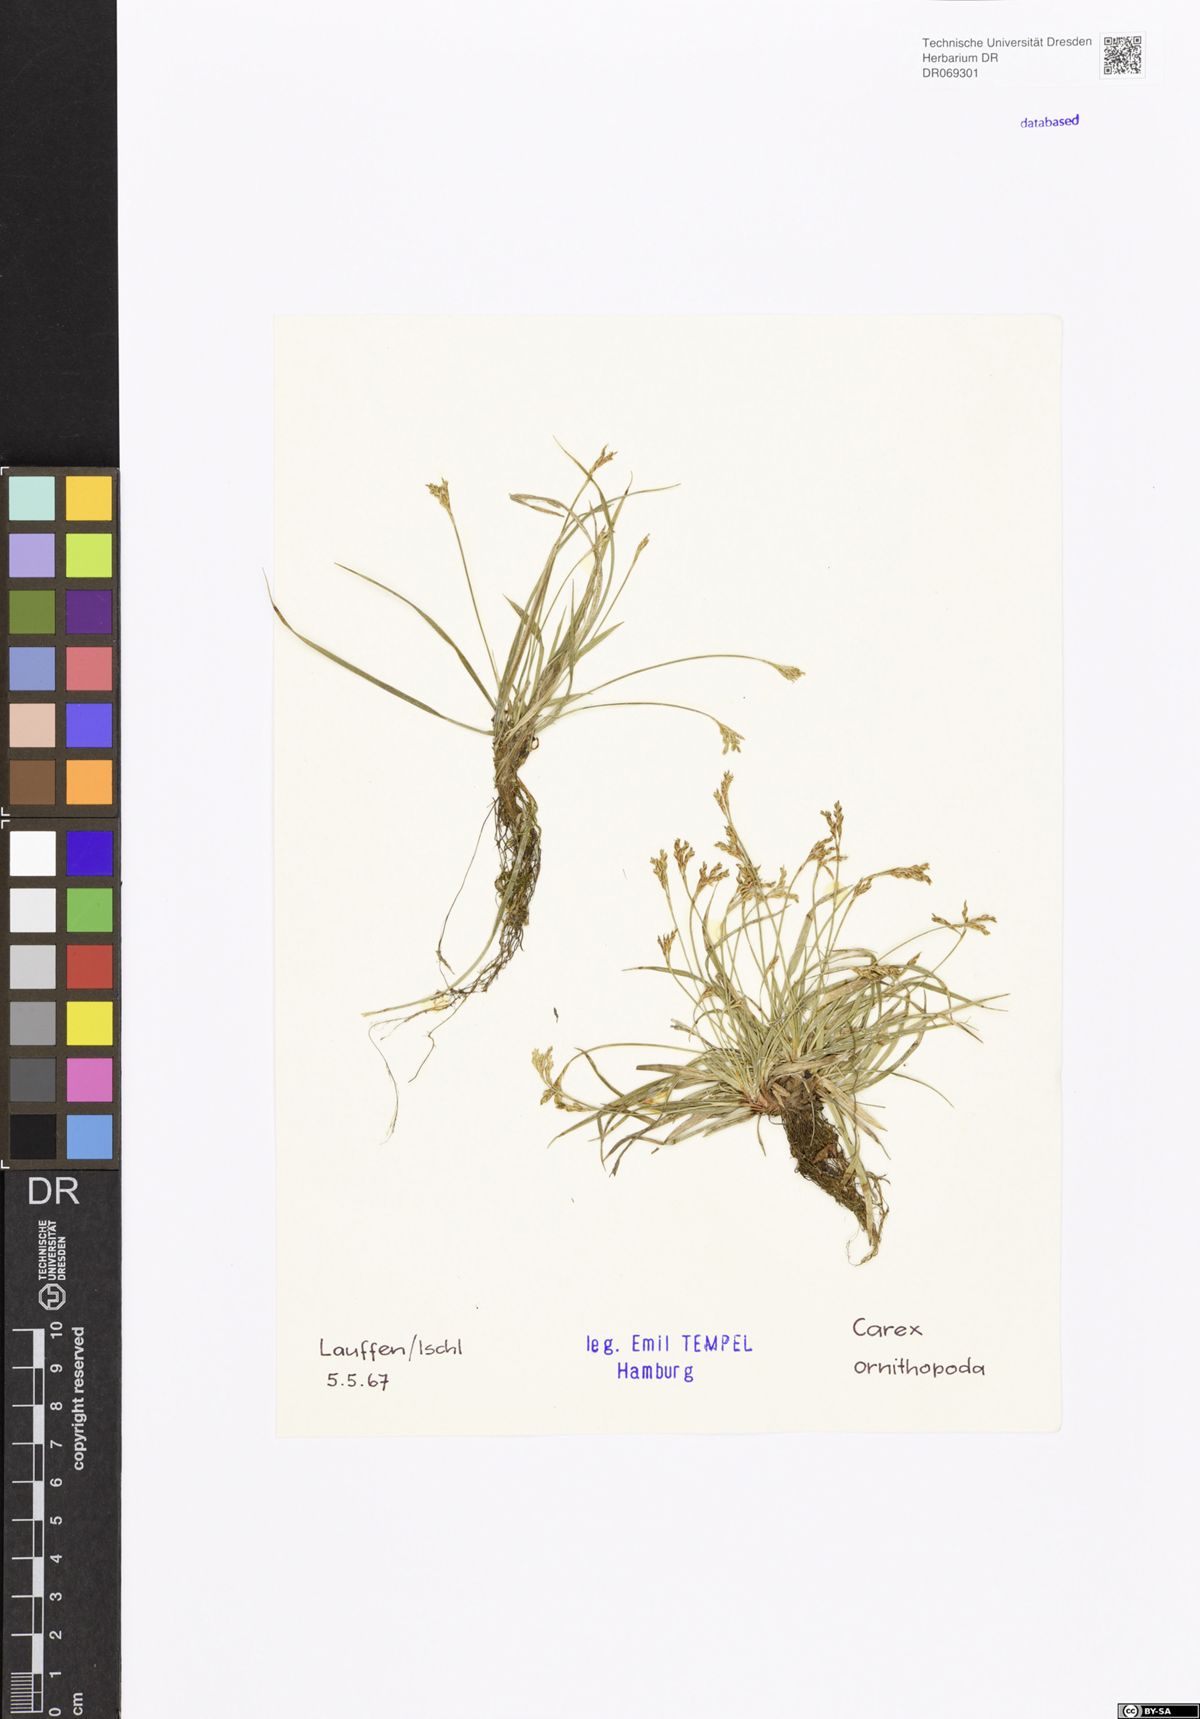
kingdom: Plantae
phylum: Tracheophyta
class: Liliopsida
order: Poales
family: Cyperaceae
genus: Carex
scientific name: Carex ornithopoda
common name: Bird's-foot sedge
